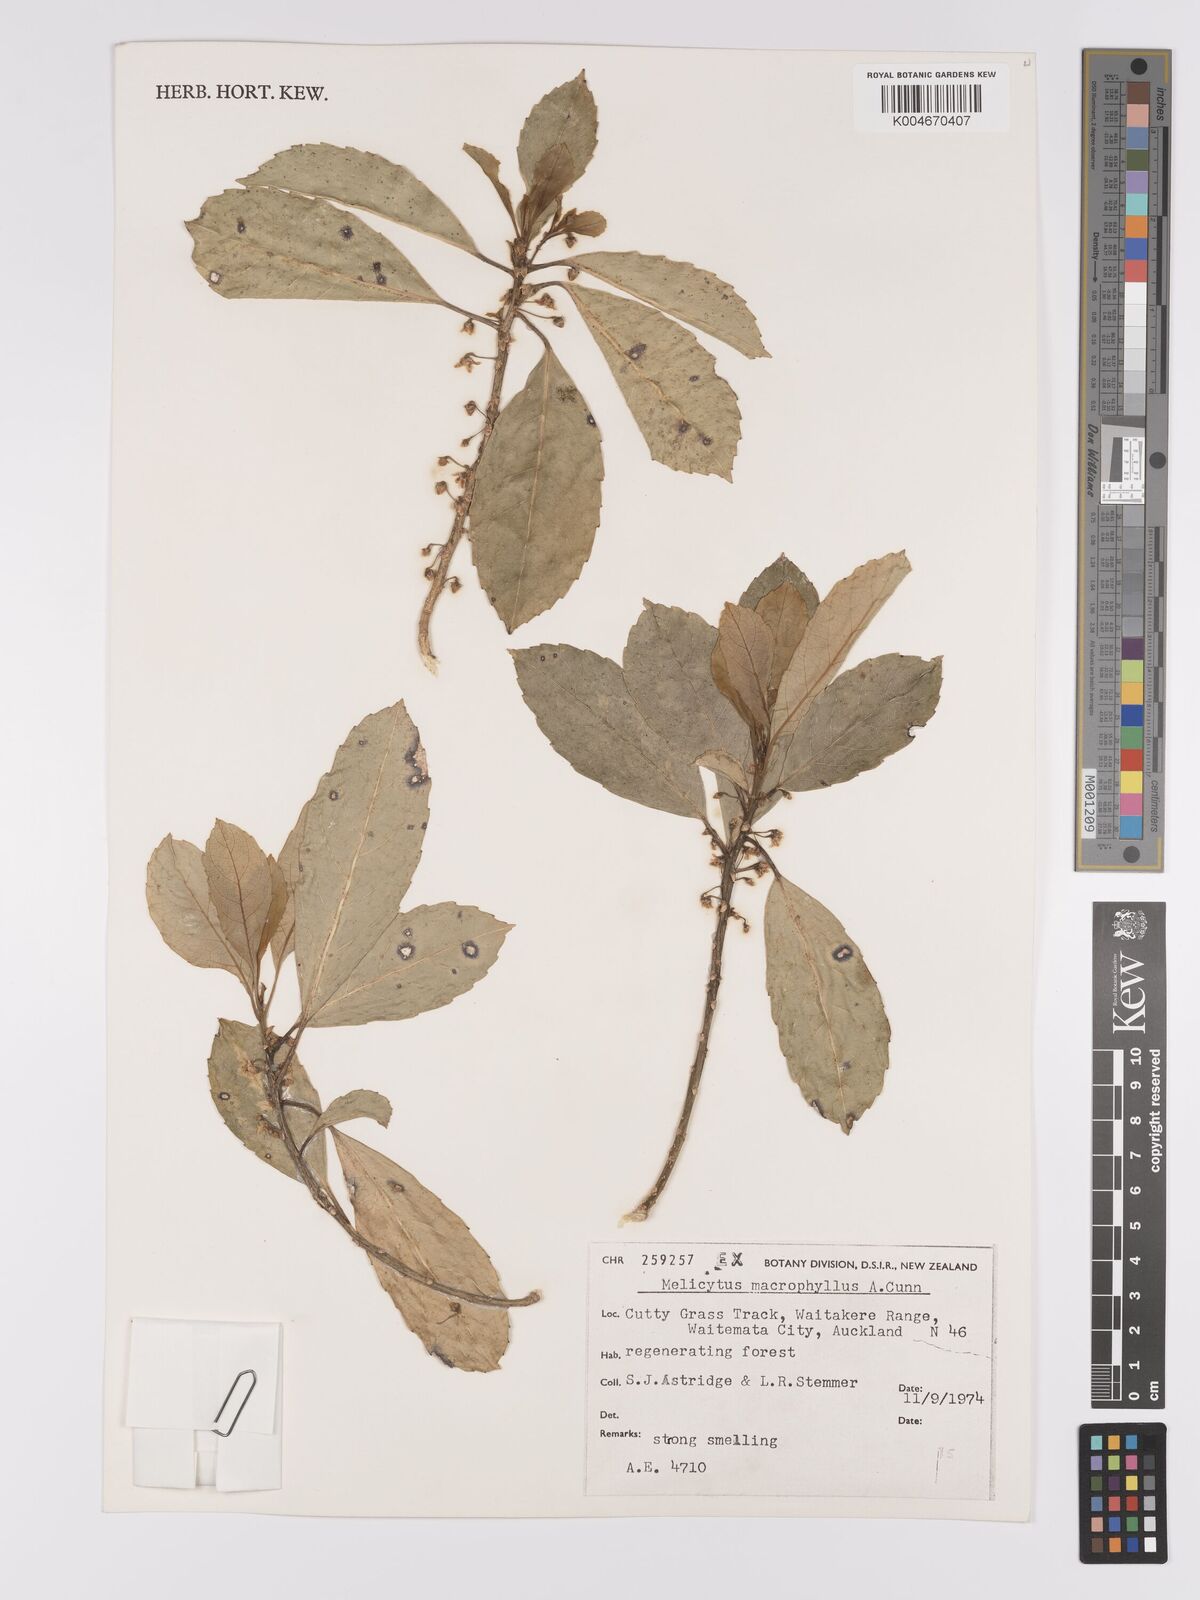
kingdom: Plantae
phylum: Tracheophyta
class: Magnoliopsida
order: Malpighiales
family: Violaceae
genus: Melicytus
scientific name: Melicytus macrophyllus
